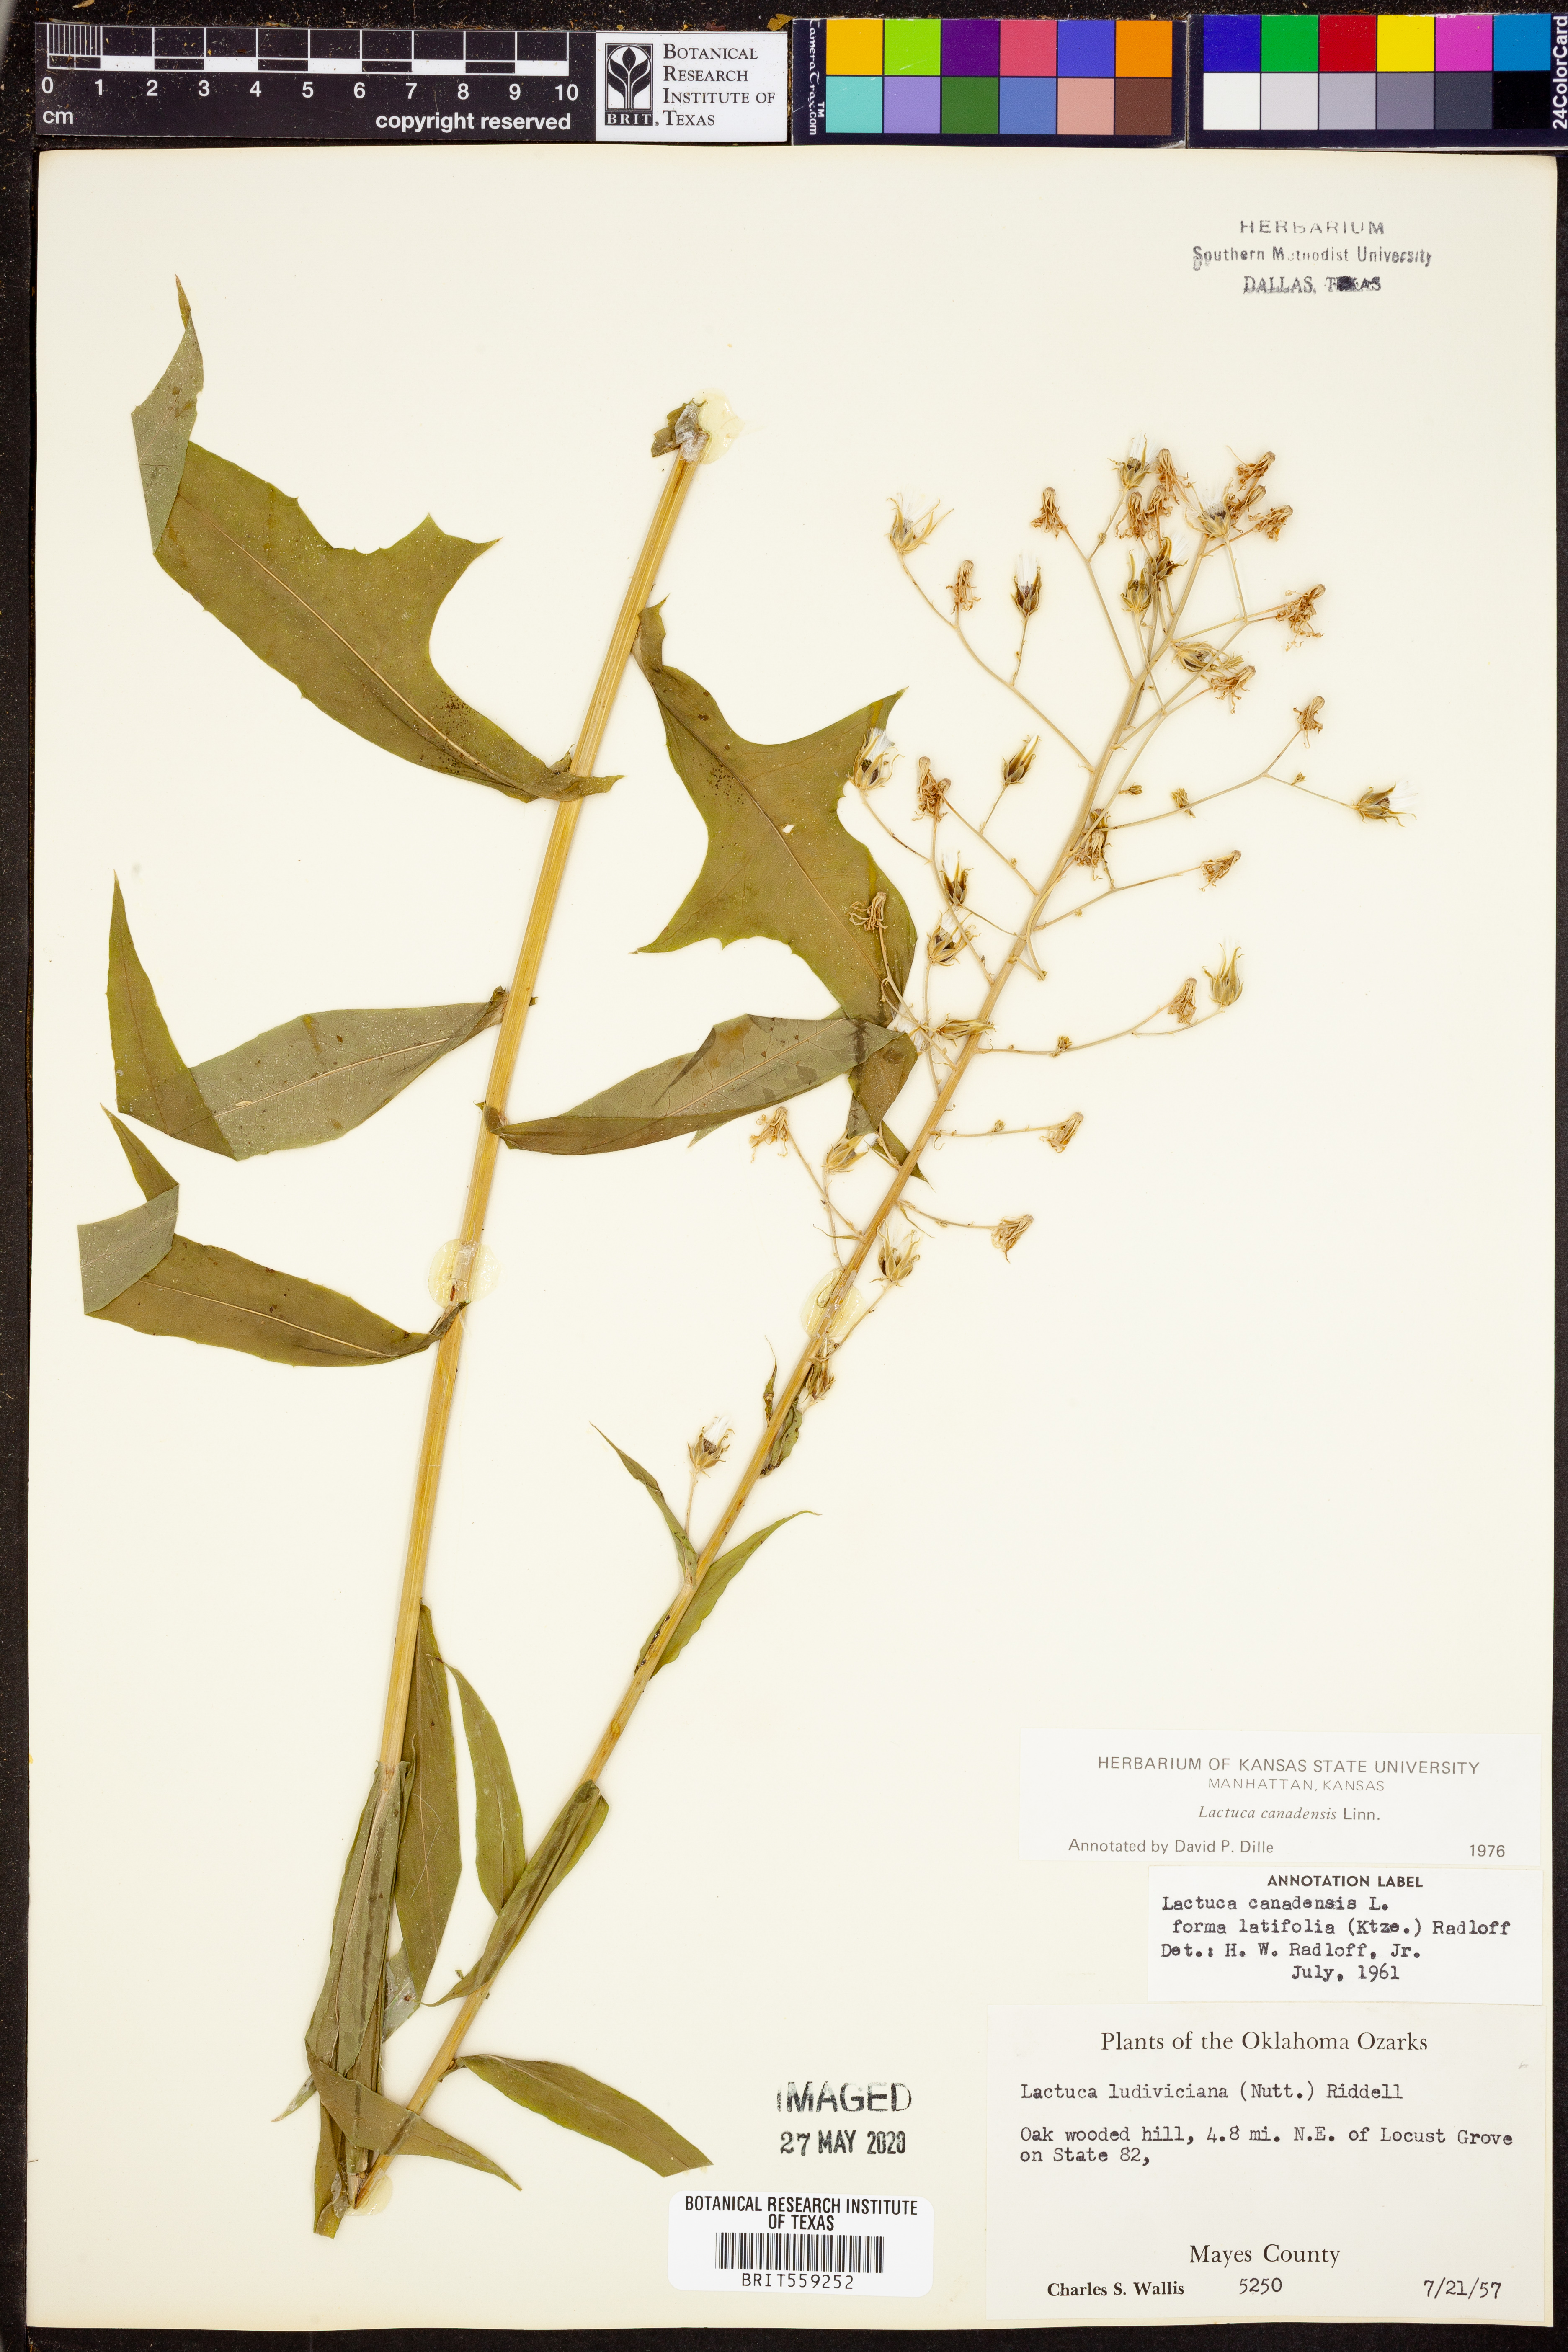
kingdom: Plantae
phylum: Tracheophyta
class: Magnoliopsida
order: Asterales
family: Asteraceae
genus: Lactuca
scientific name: Lactuca canadensis
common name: Canada lettuce
